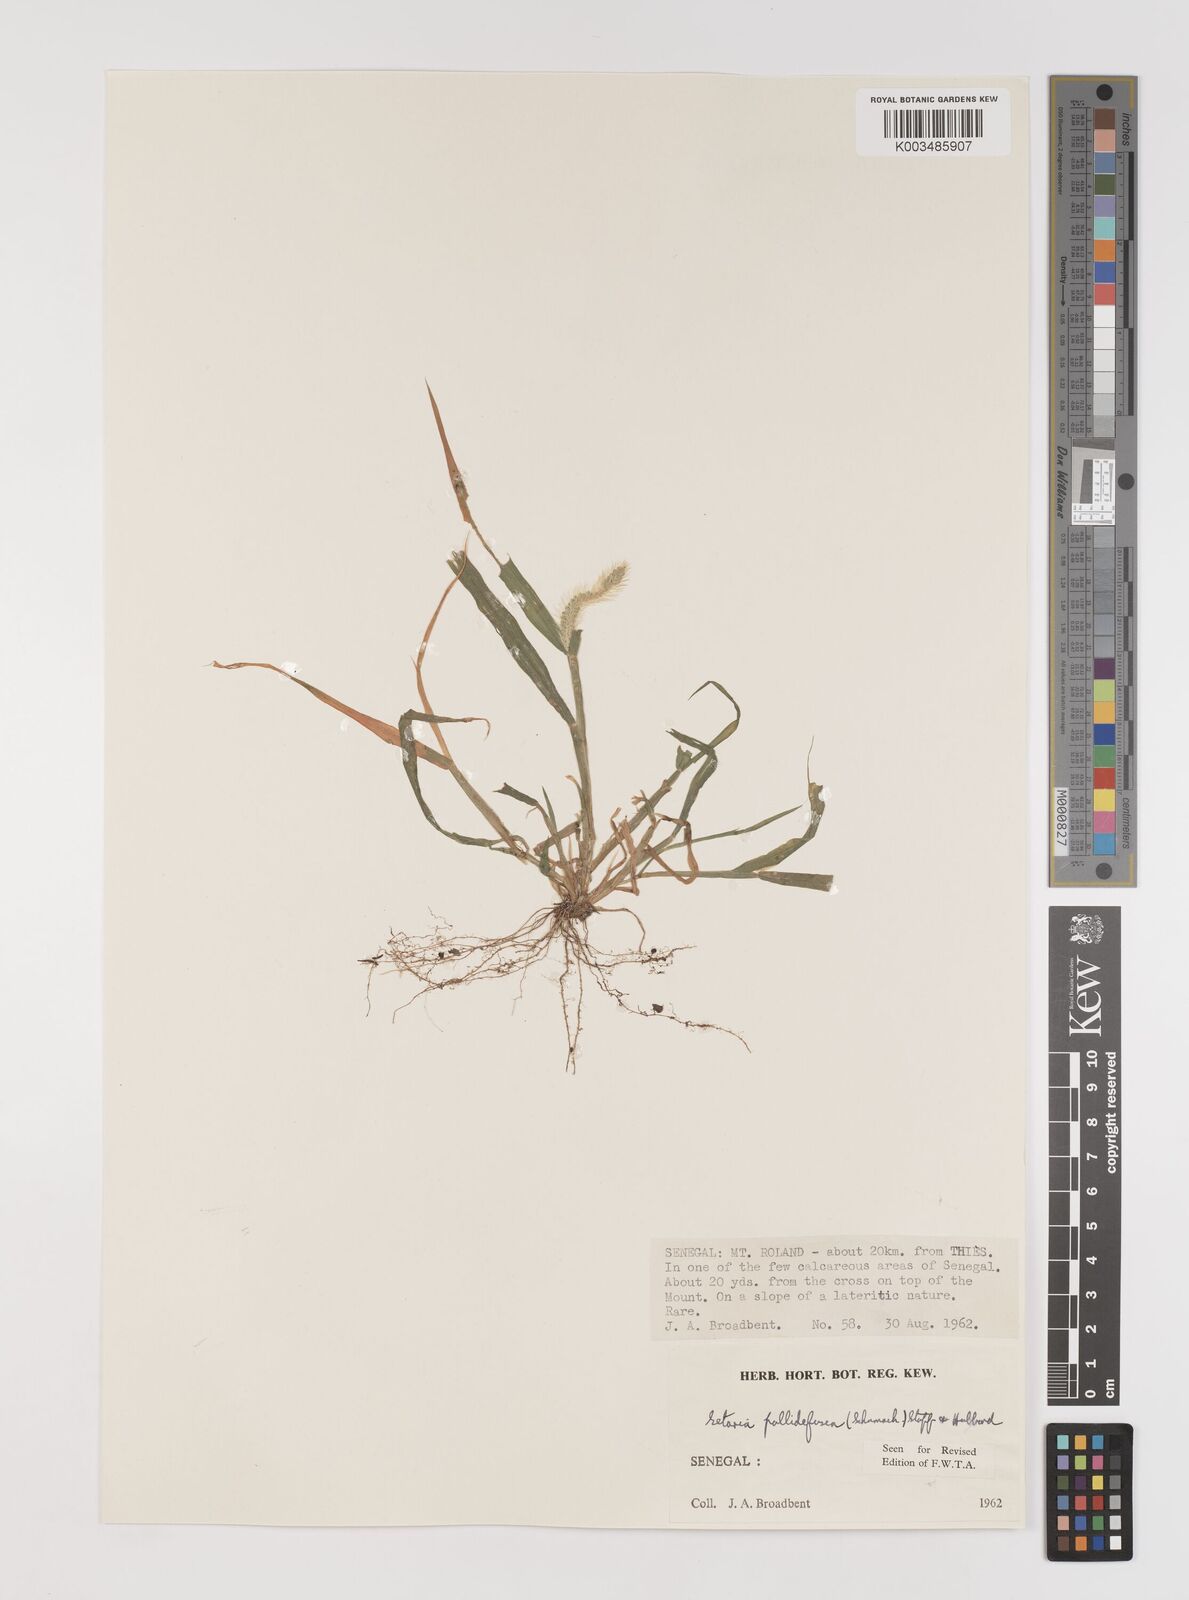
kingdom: Plantae
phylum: Tracheophyta
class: Liliopsida
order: Poales
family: Poaceae
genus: Setaria
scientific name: Setaria pumila
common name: Yellow bristle-grass
